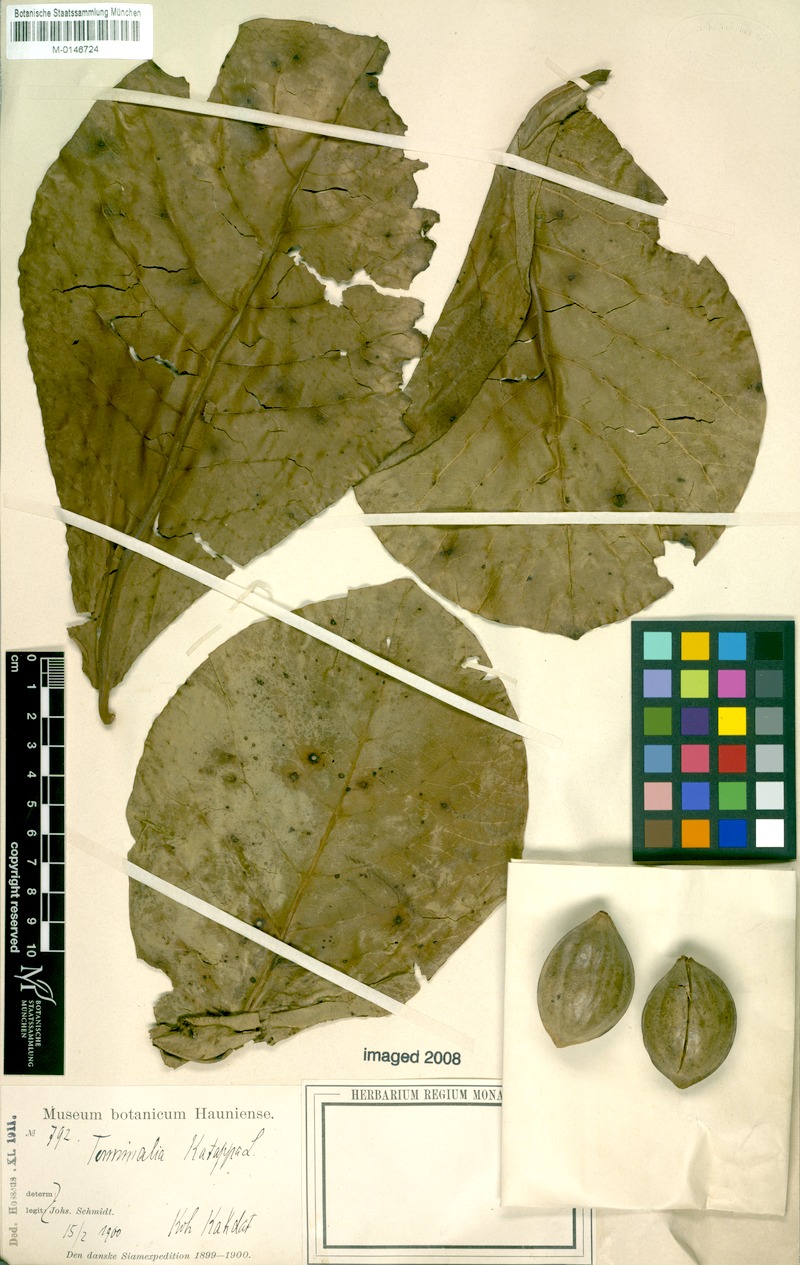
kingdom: Plantae
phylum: Tracheophyta
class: Magnoliopsida
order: Myrtales
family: Combretaceae
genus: Terminalia
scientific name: Terminalia catappa
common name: Tropical almond
